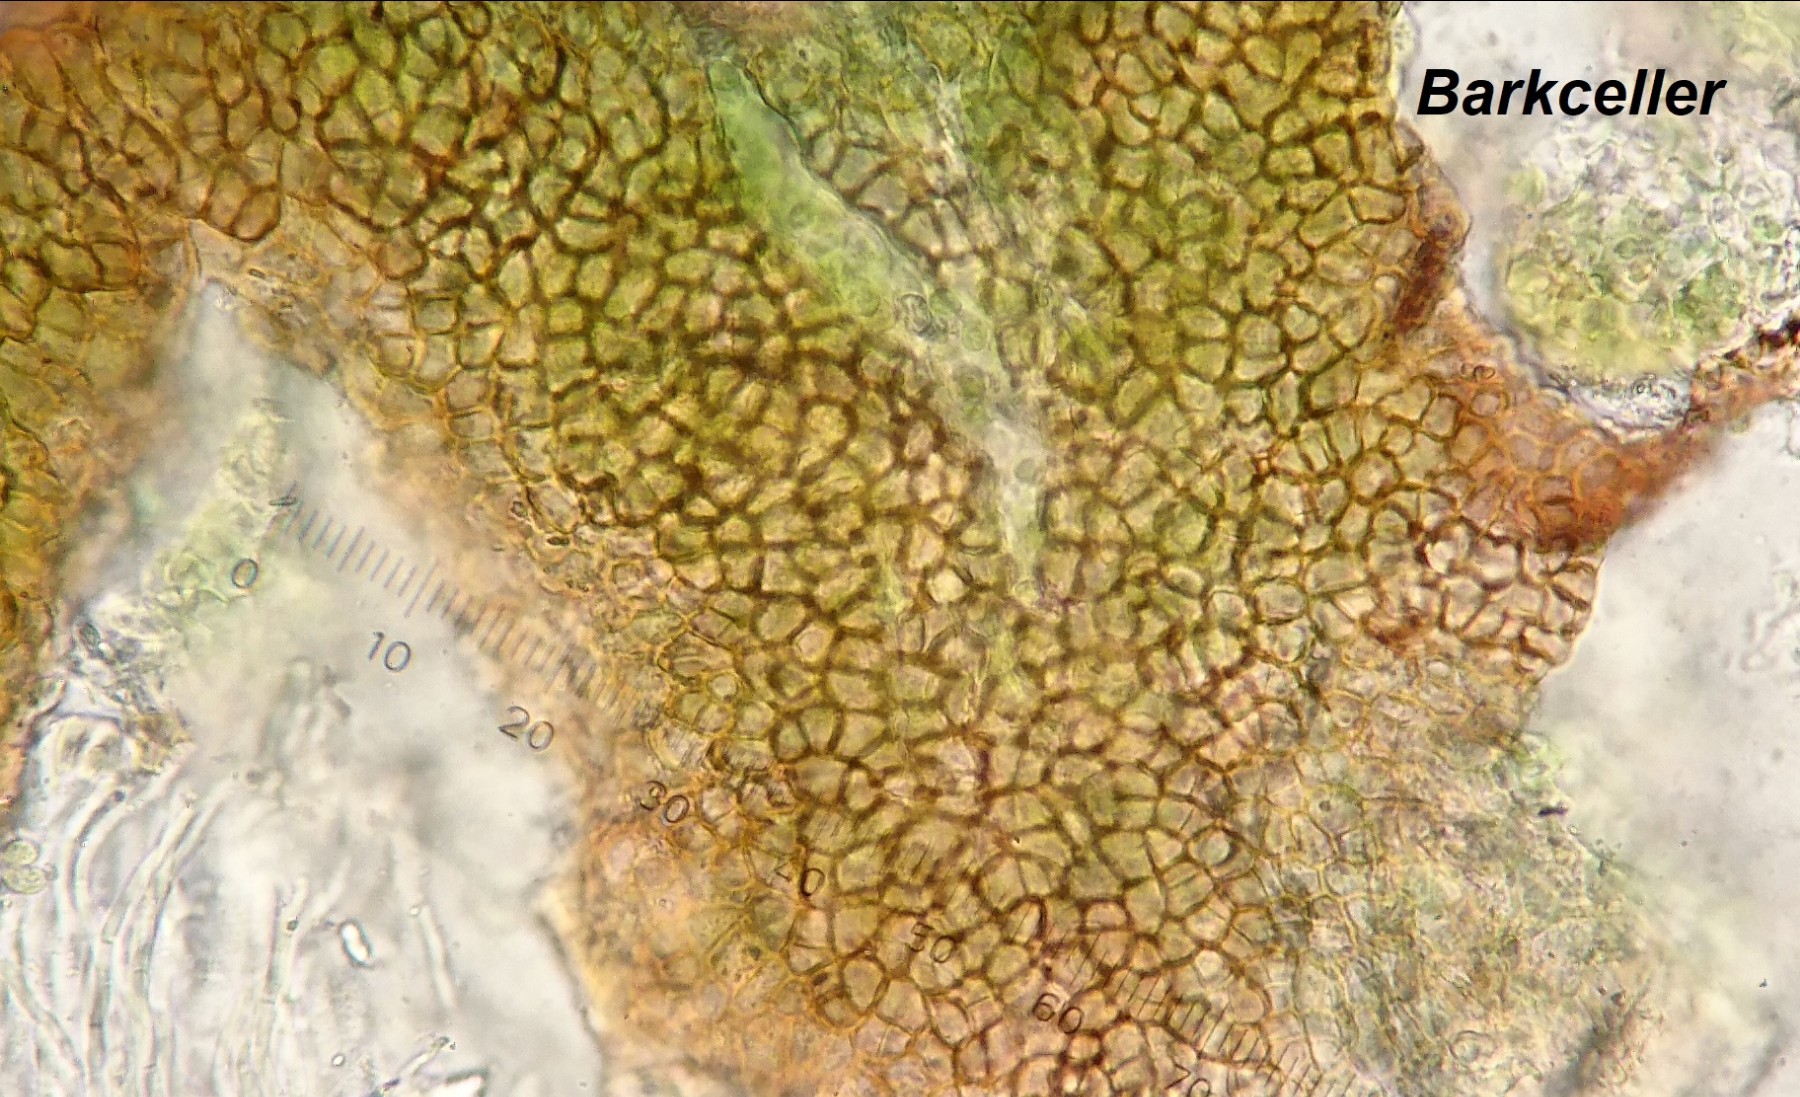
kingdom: Fungi
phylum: Ascomycota
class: Lecanoromycetes
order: Peltigerales
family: Collemataceae
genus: Scytinium
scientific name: Scytinium biatorinum
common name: kalk-hindelav
